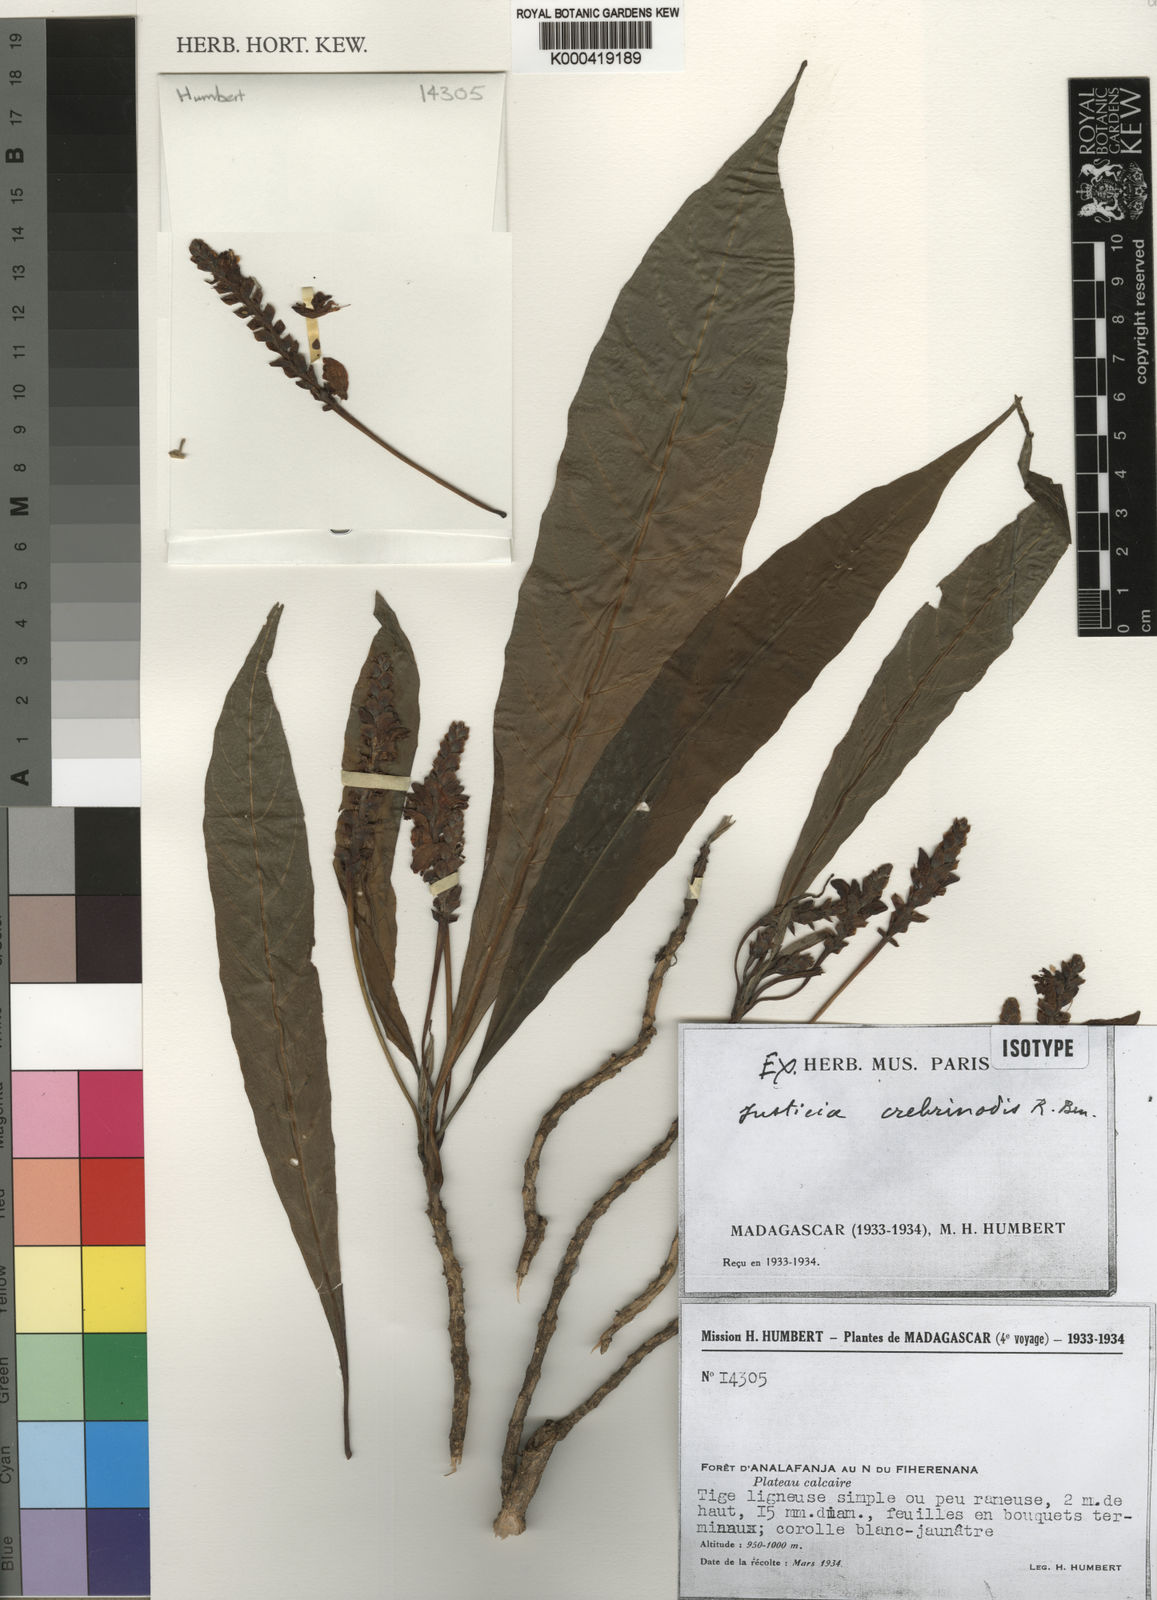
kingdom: Plantae
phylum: Tracheophyta
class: Magnoliopsida
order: Lamiales
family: Acanthaceae
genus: Justicia
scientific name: Justicia crebrinodis
